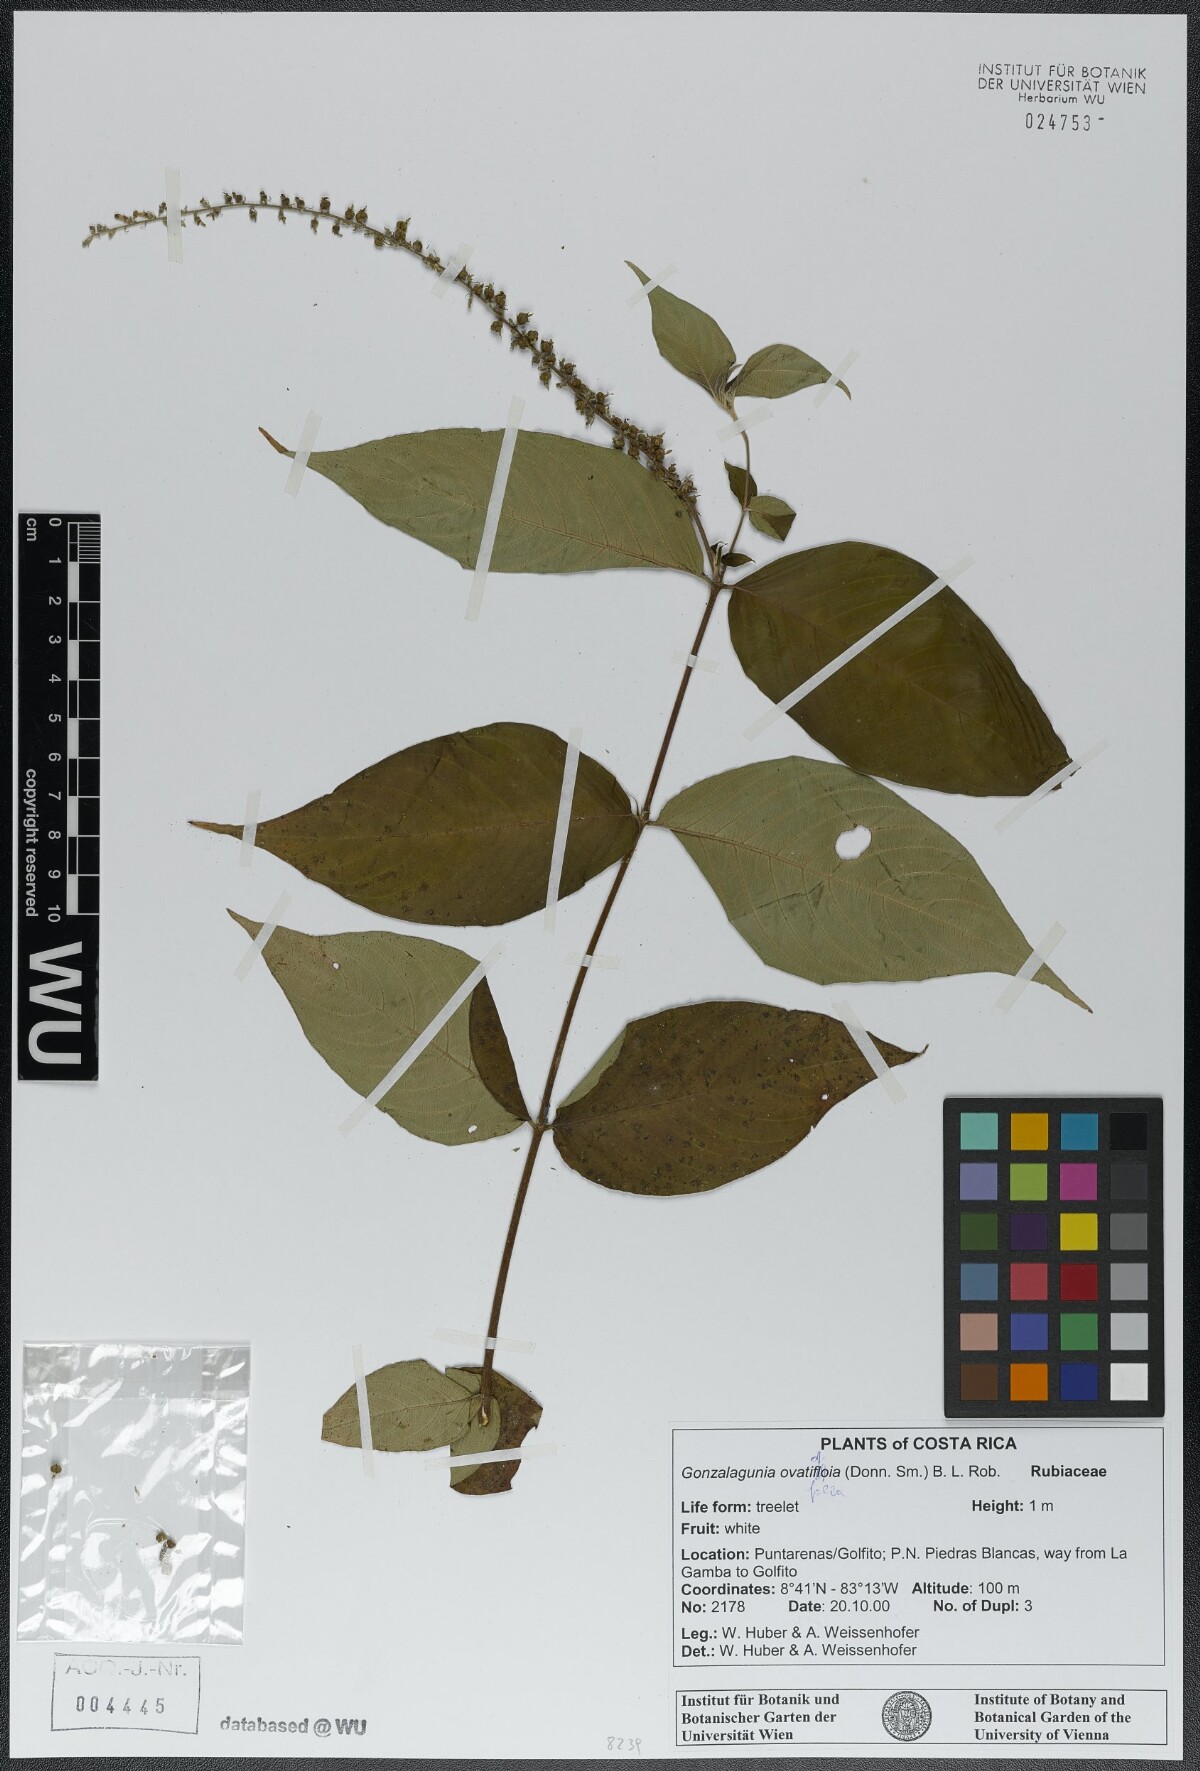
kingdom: Plantae
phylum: Tracheophyta
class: Magnoliopsida
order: Gentianales
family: Rubiaceae
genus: Gonzalagunia
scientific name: Gonzalagunia ovatifolia
